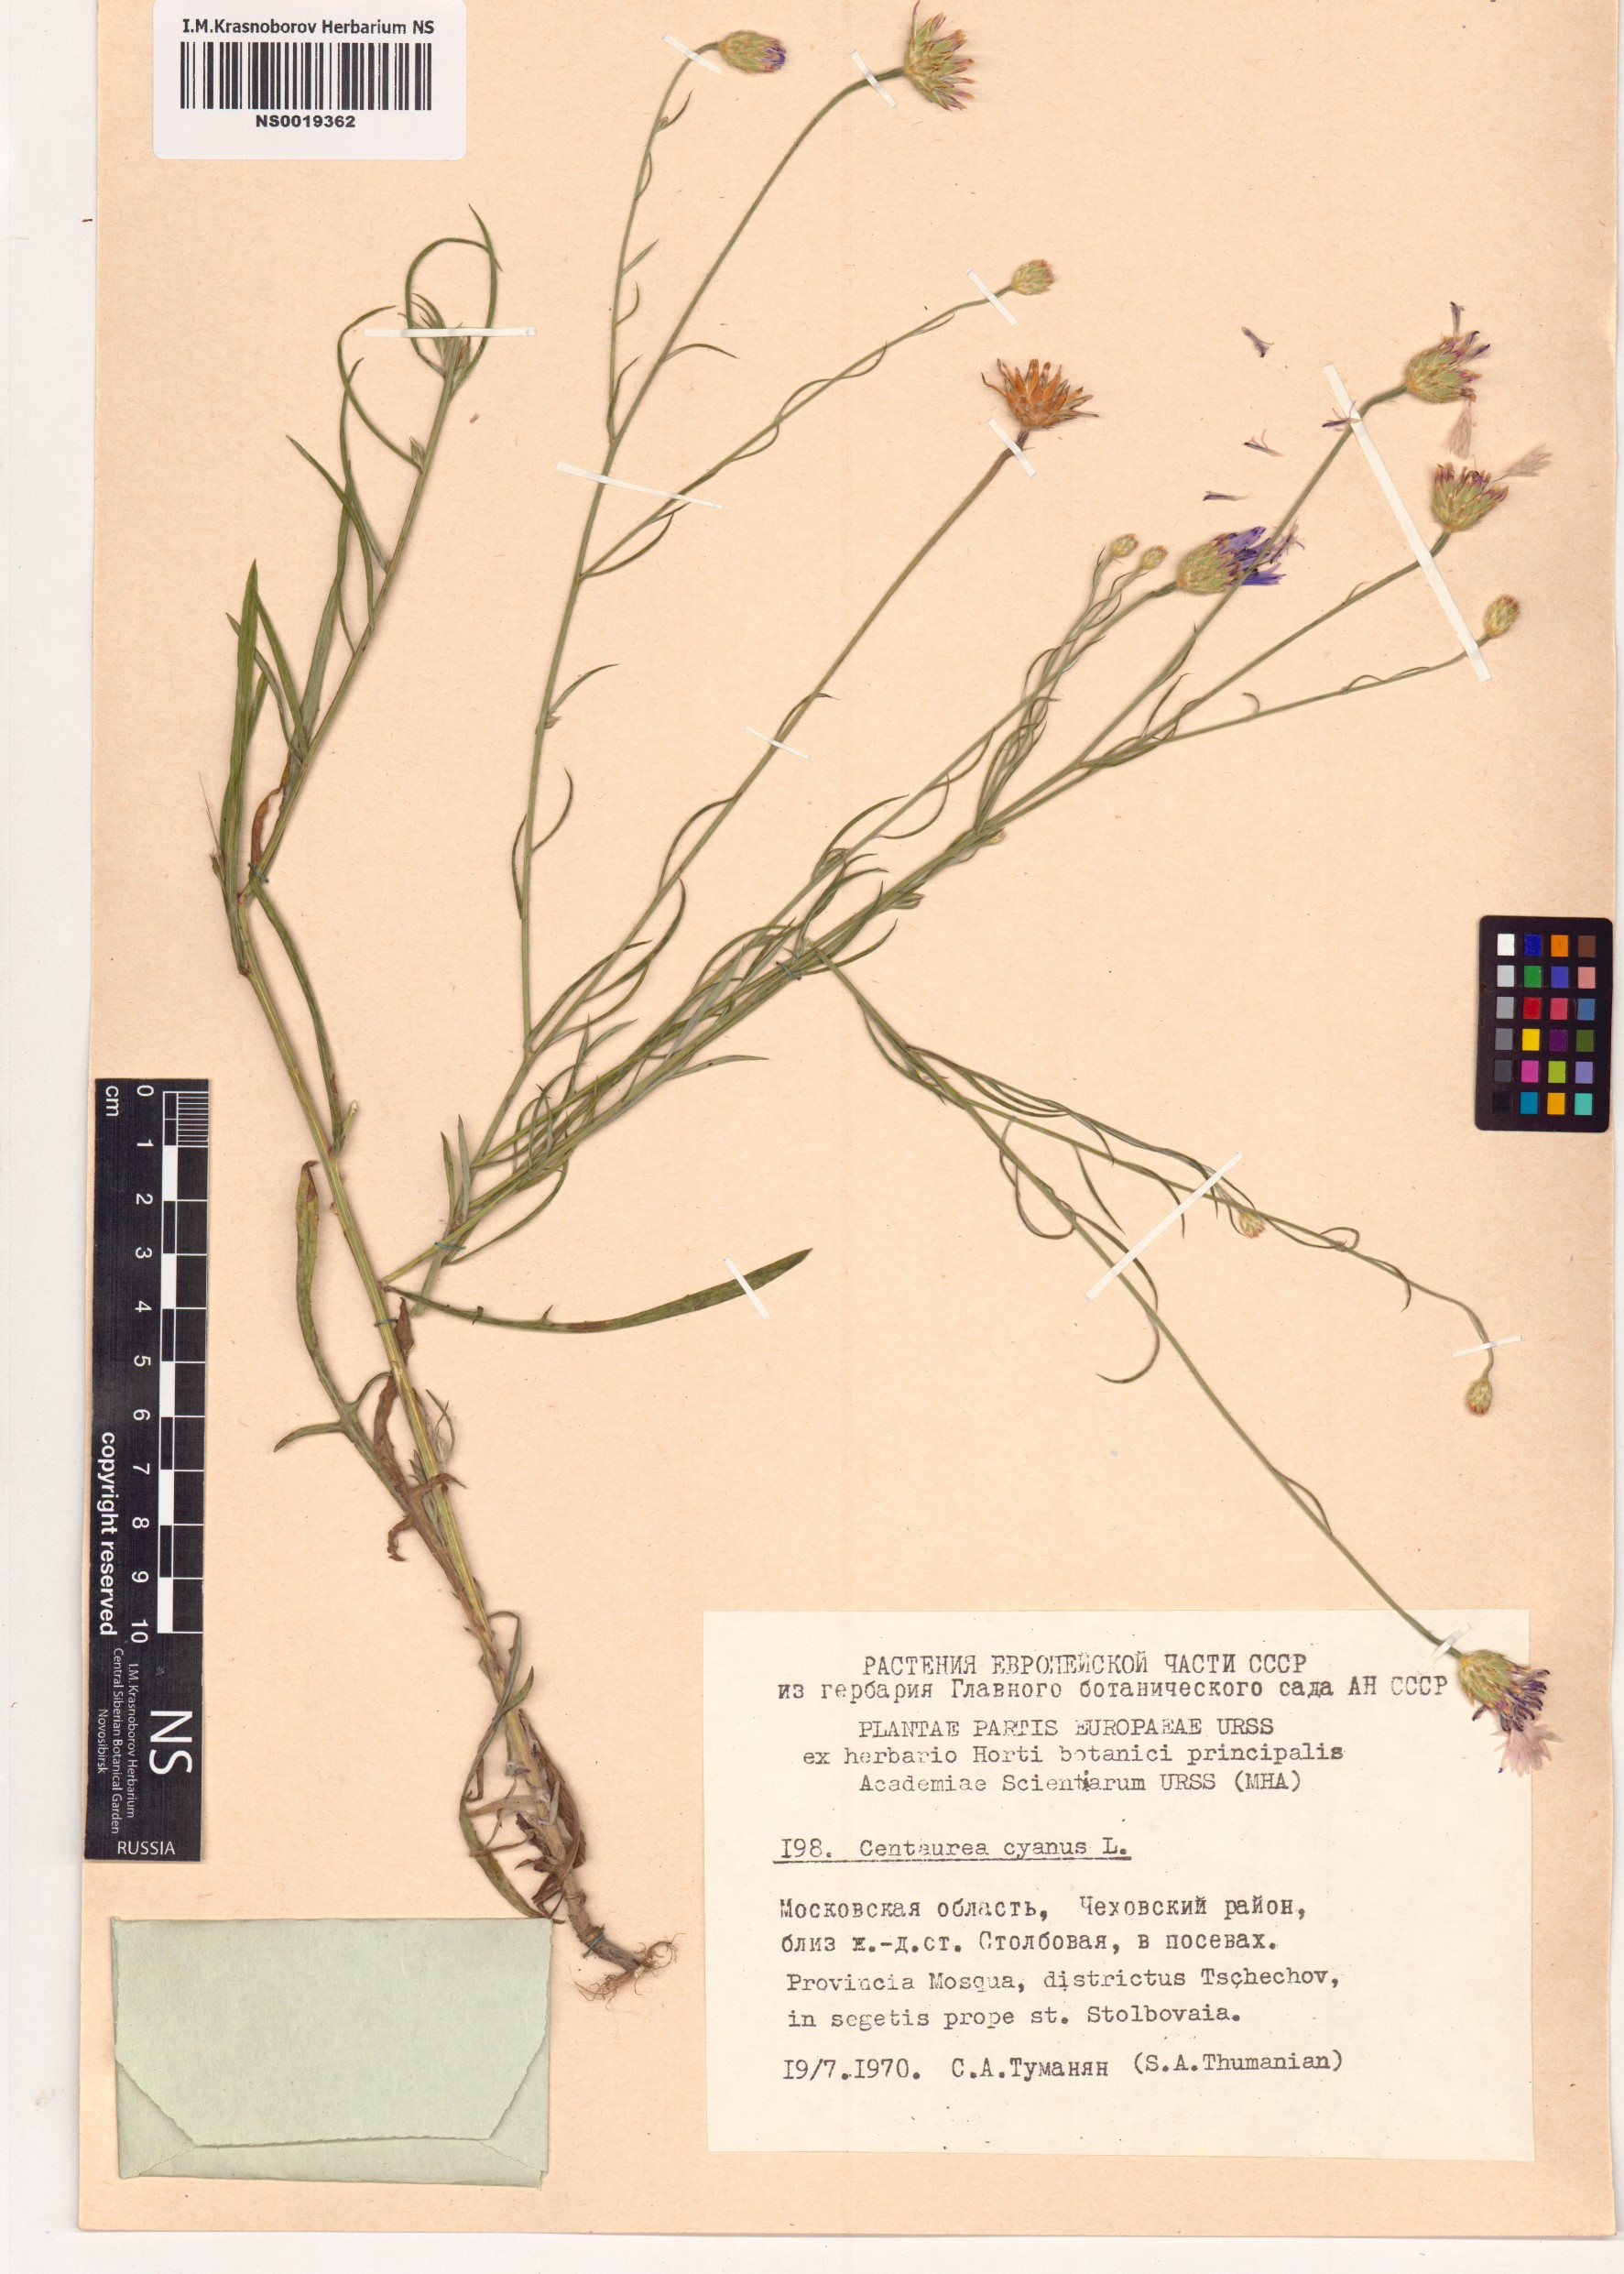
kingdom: Plantae
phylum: Tracheophyta
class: Magnoliopsida
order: Asterales
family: Asteraceae
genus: Centaurea
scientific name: Centaurea cyanus
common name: Cornflower
